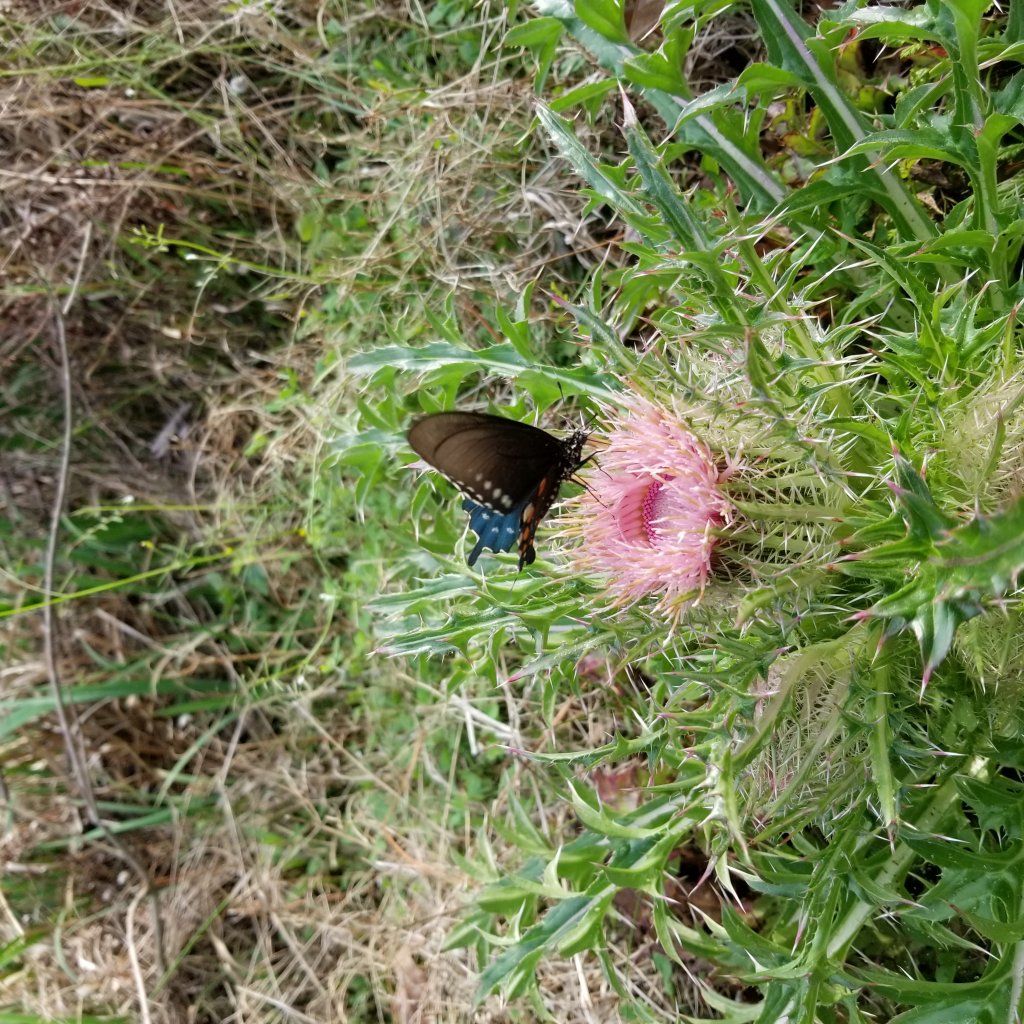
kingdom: Animalia
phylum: Arthropoda
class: Insecta
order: Lepidoptera
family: Papilionidae
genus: Battus
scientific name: Battus philenor
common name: Pipevine Swallowtail
